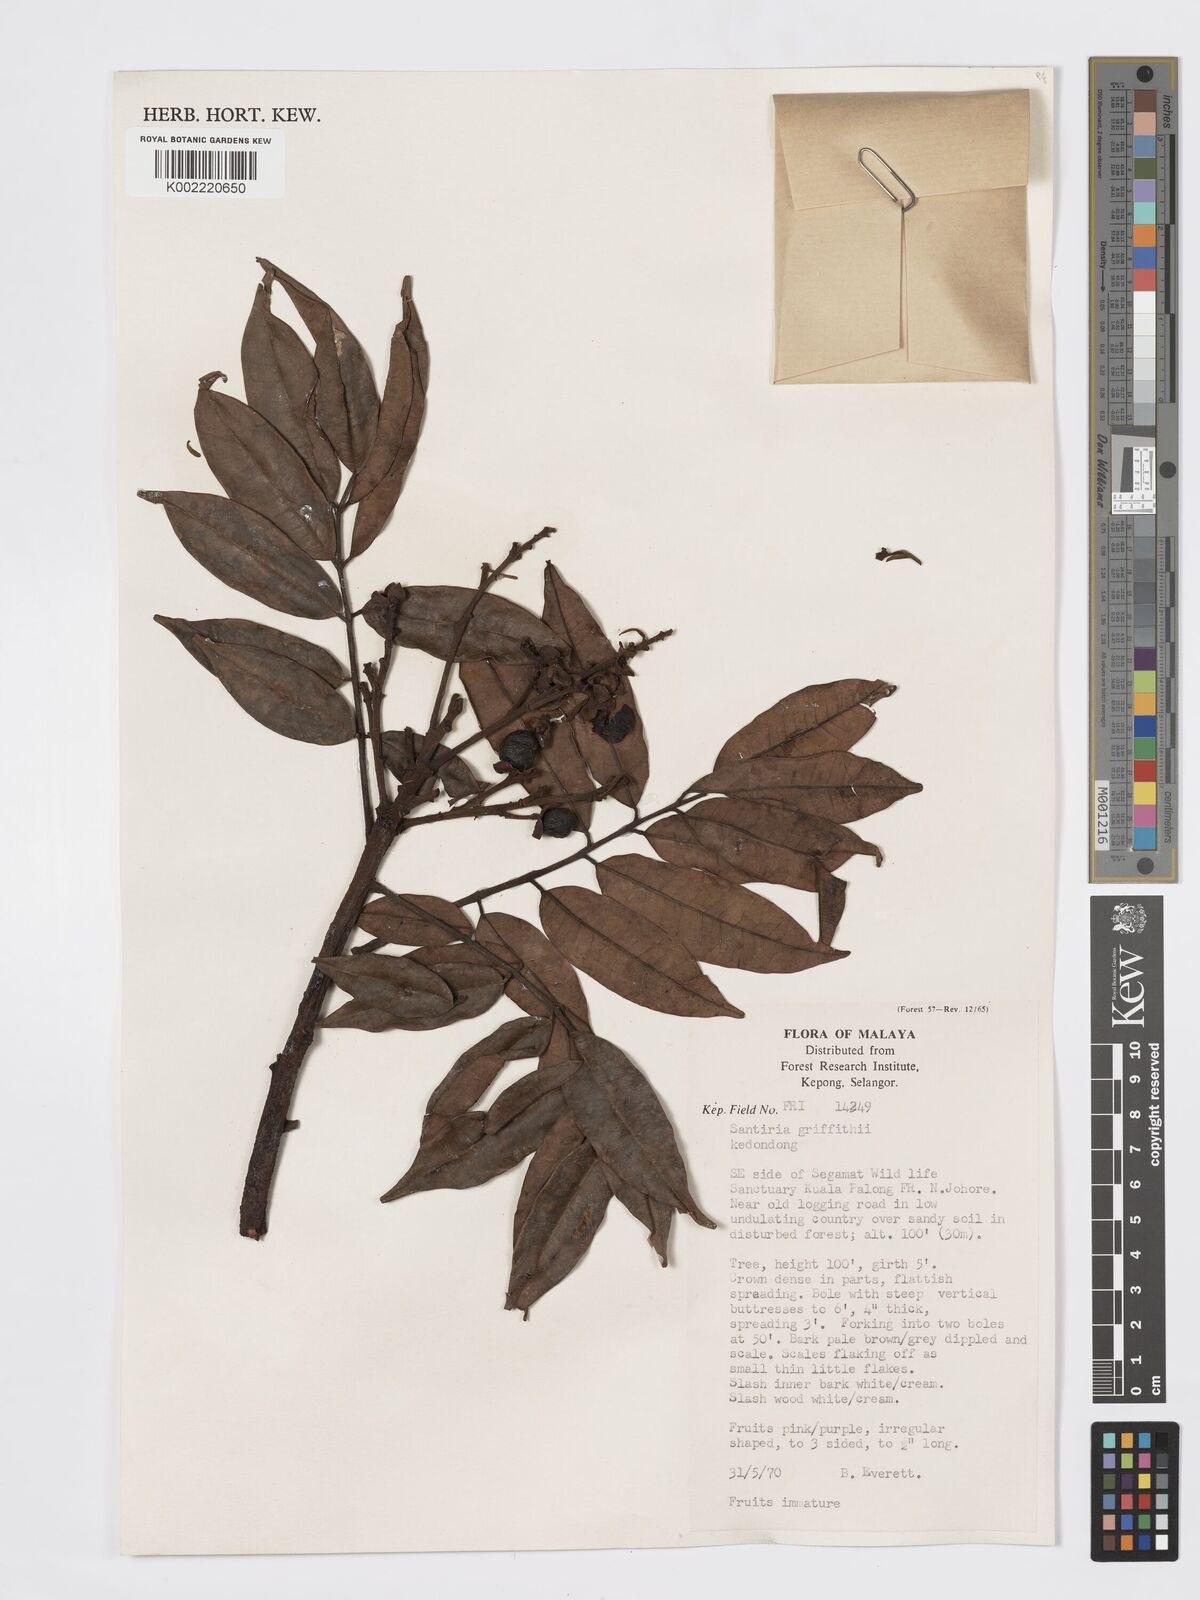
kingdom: Plantae
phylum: Tracheophyta
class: Magnoliopsida
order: Sapindales
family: Burseraceae
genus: Santiria
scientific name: Santiria griffithii
